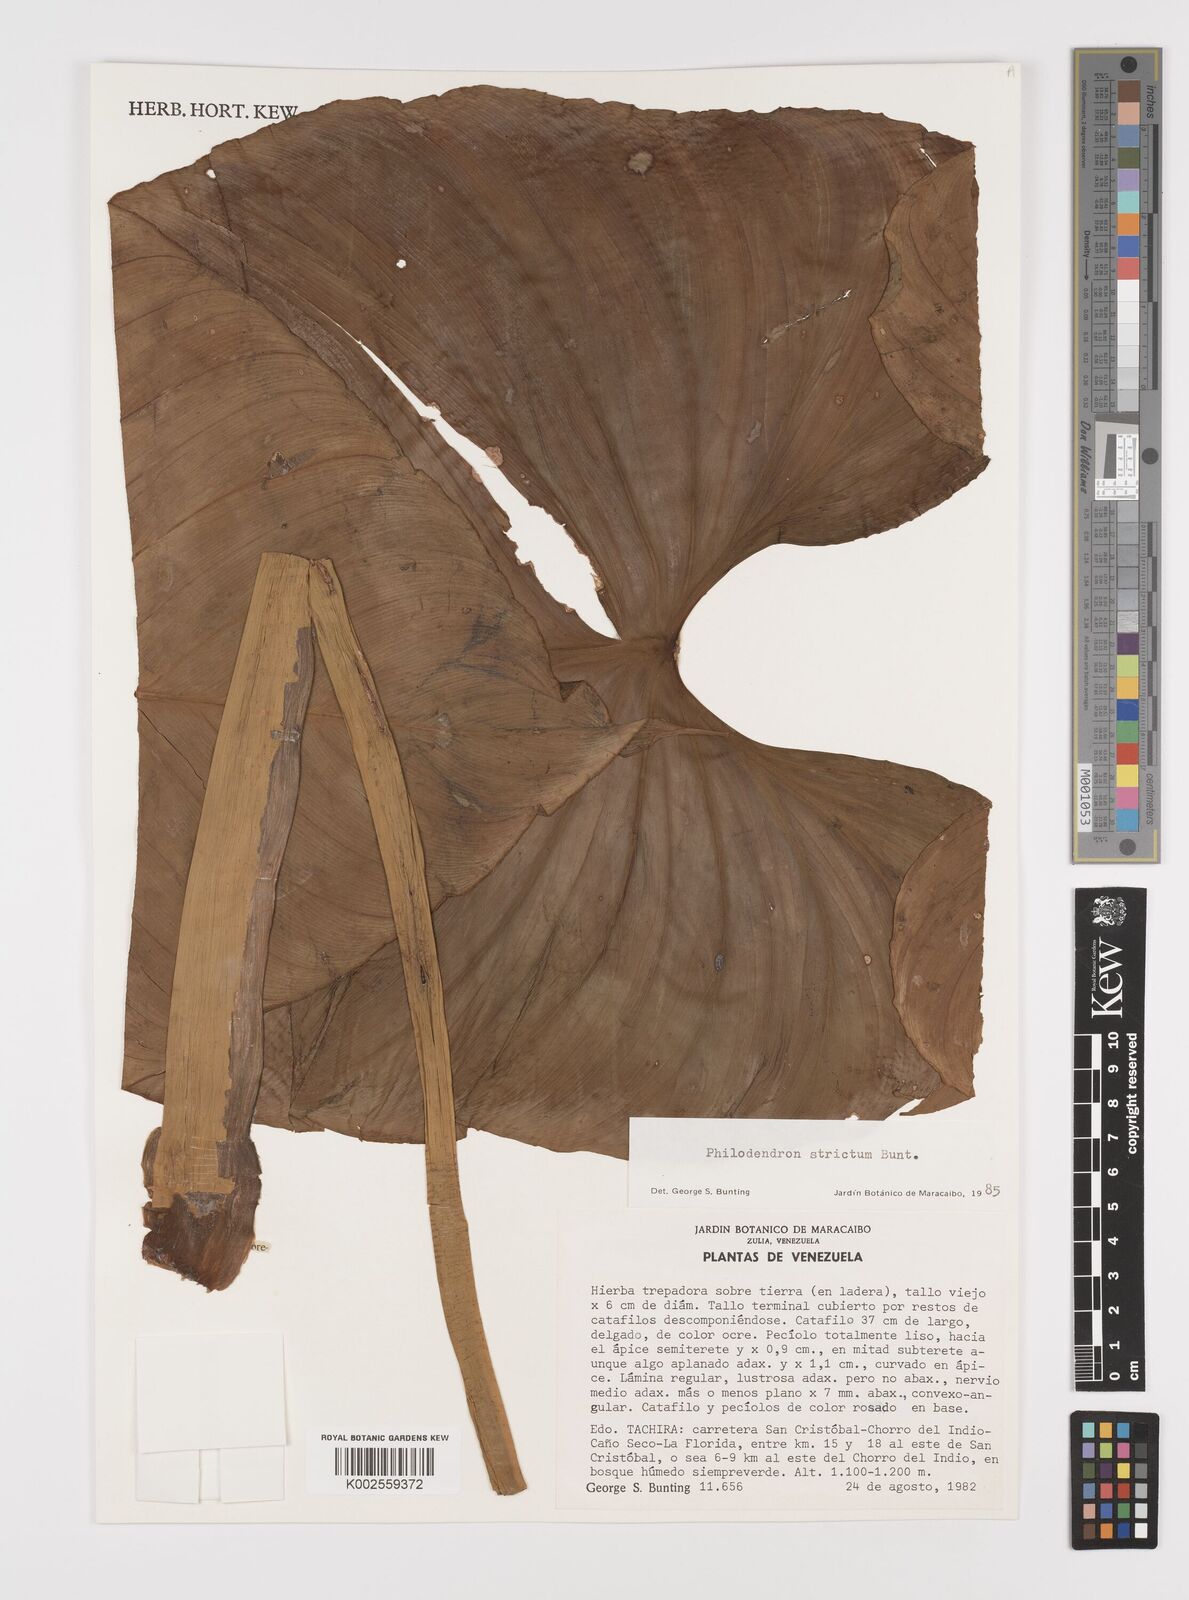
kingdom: Plantae
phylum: Tracheophyta
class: Liliopsida
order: Alismatales
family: Araceae
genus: Philodendron
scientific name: Philodendron strictum
